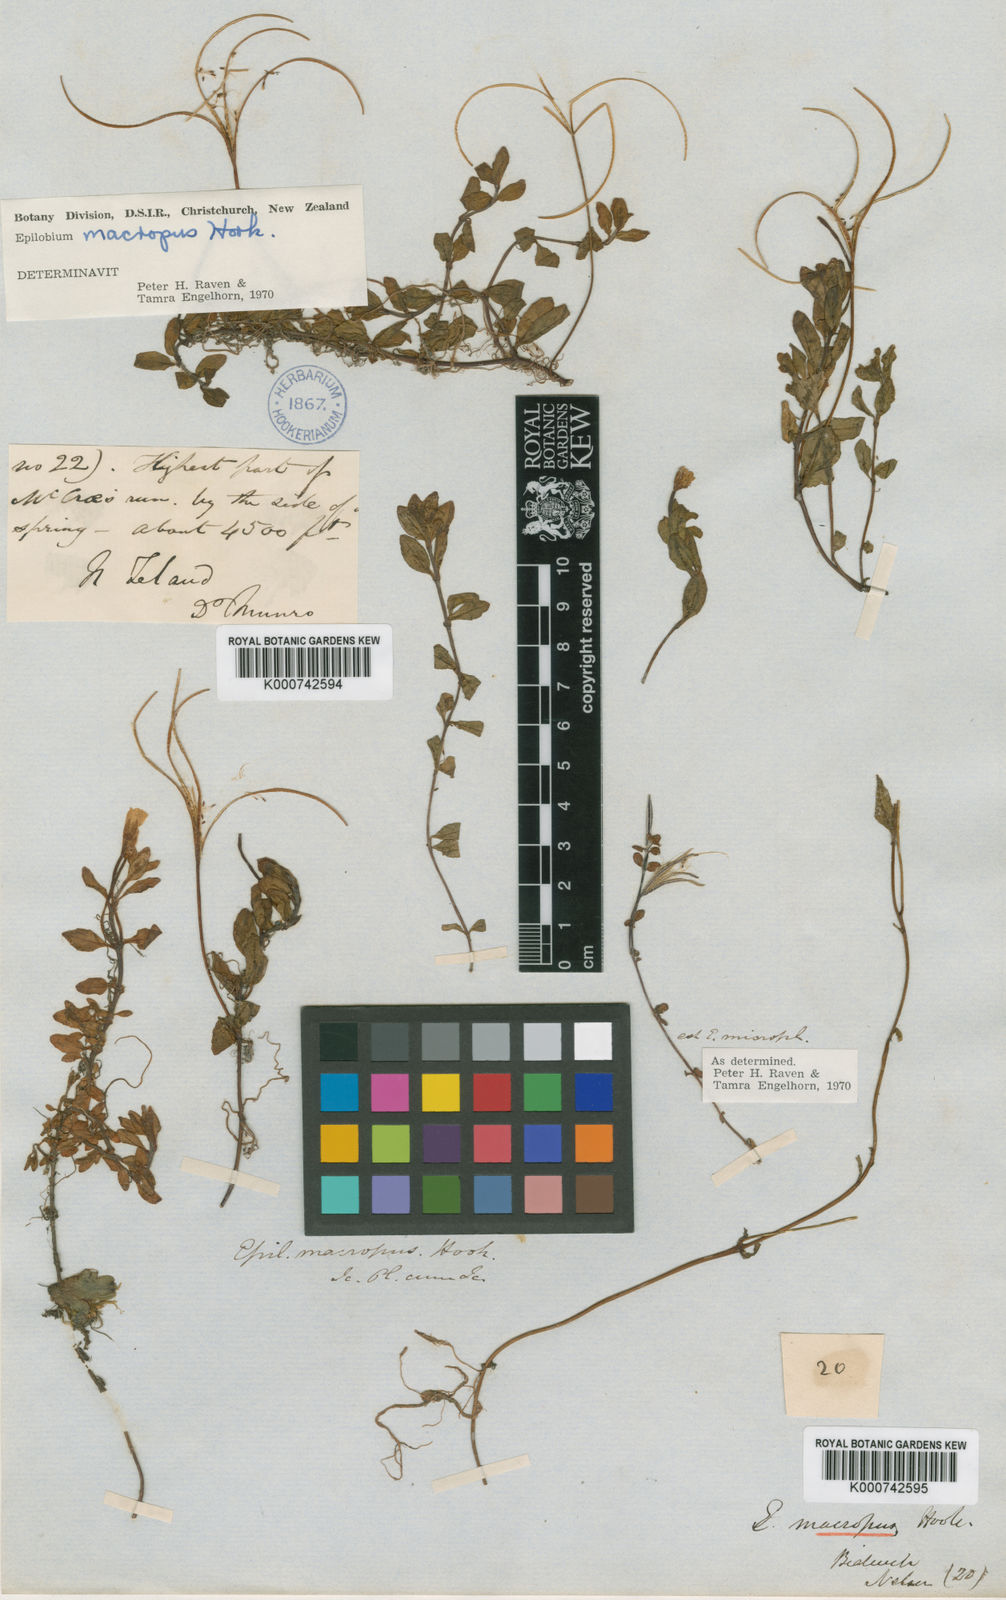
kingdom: Plantae
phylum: Tracheophyta
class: Magnoliopsida
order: Myrtales
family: Onagraceae
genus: Epilobium
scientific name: Epilobium macropus
